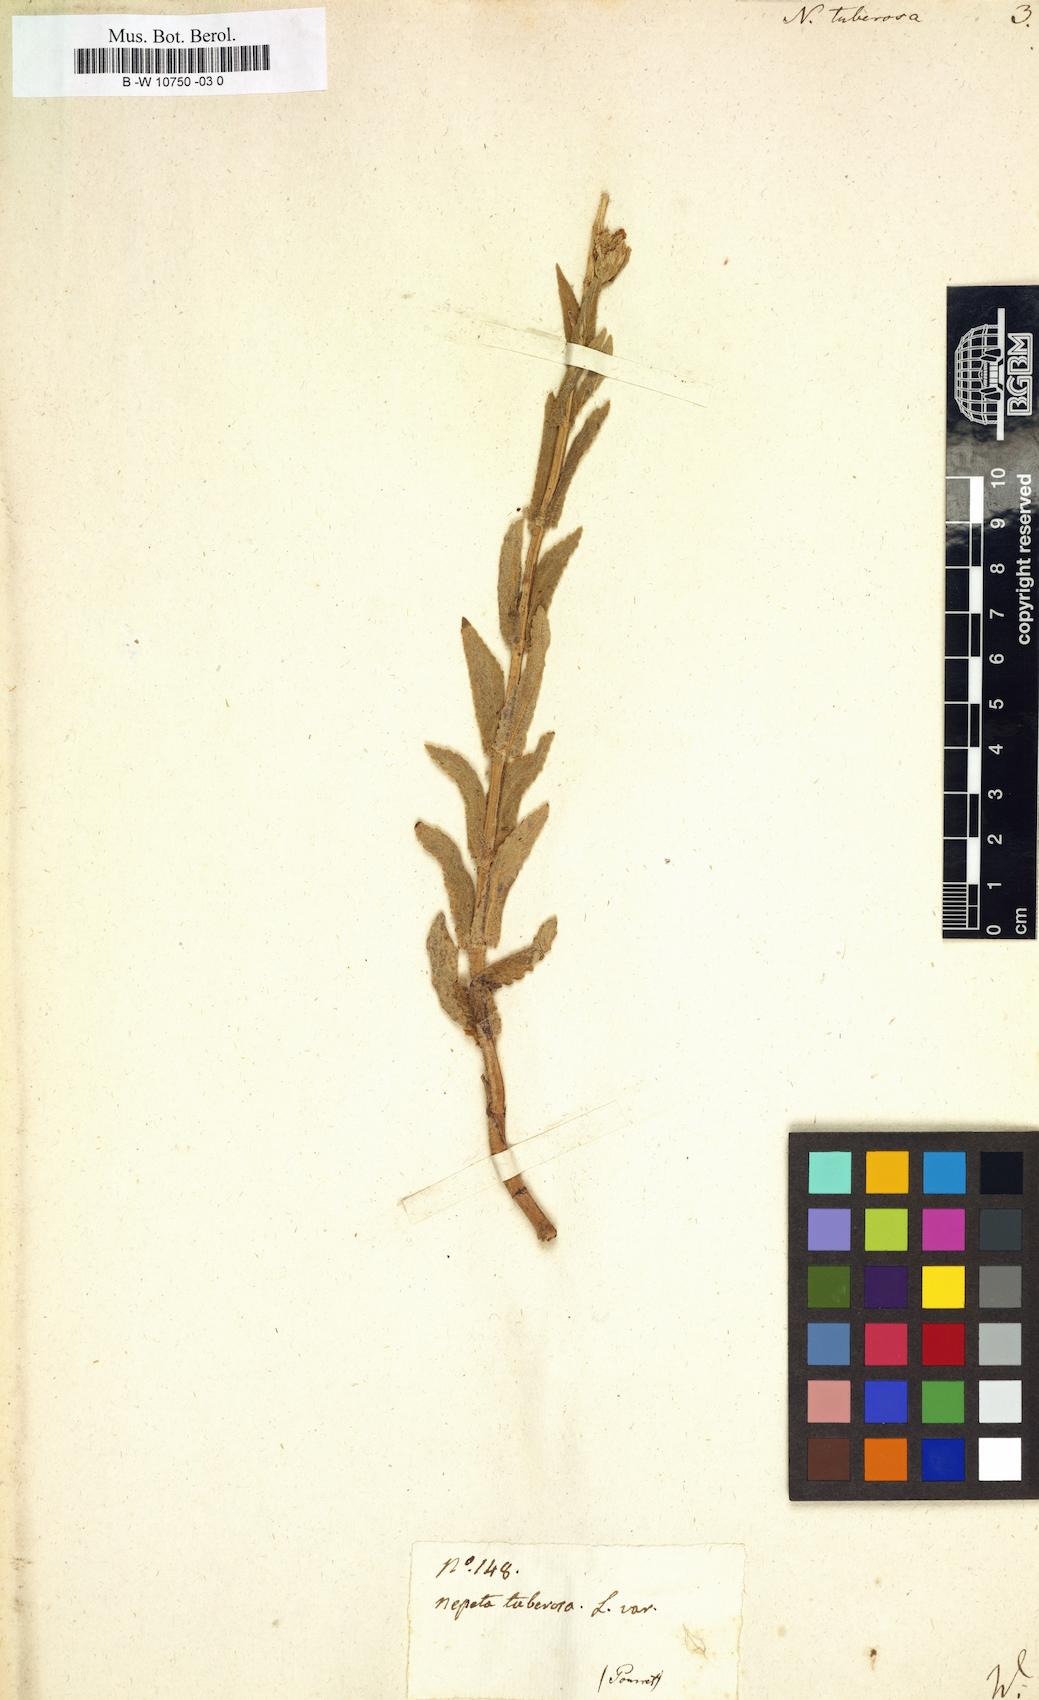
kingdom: Plantae
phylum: Tracheophyta
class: Magnoliopsida
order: Lamiales
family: Lamiaceae
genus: Nepeta
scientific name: Nepeta tuberosa
